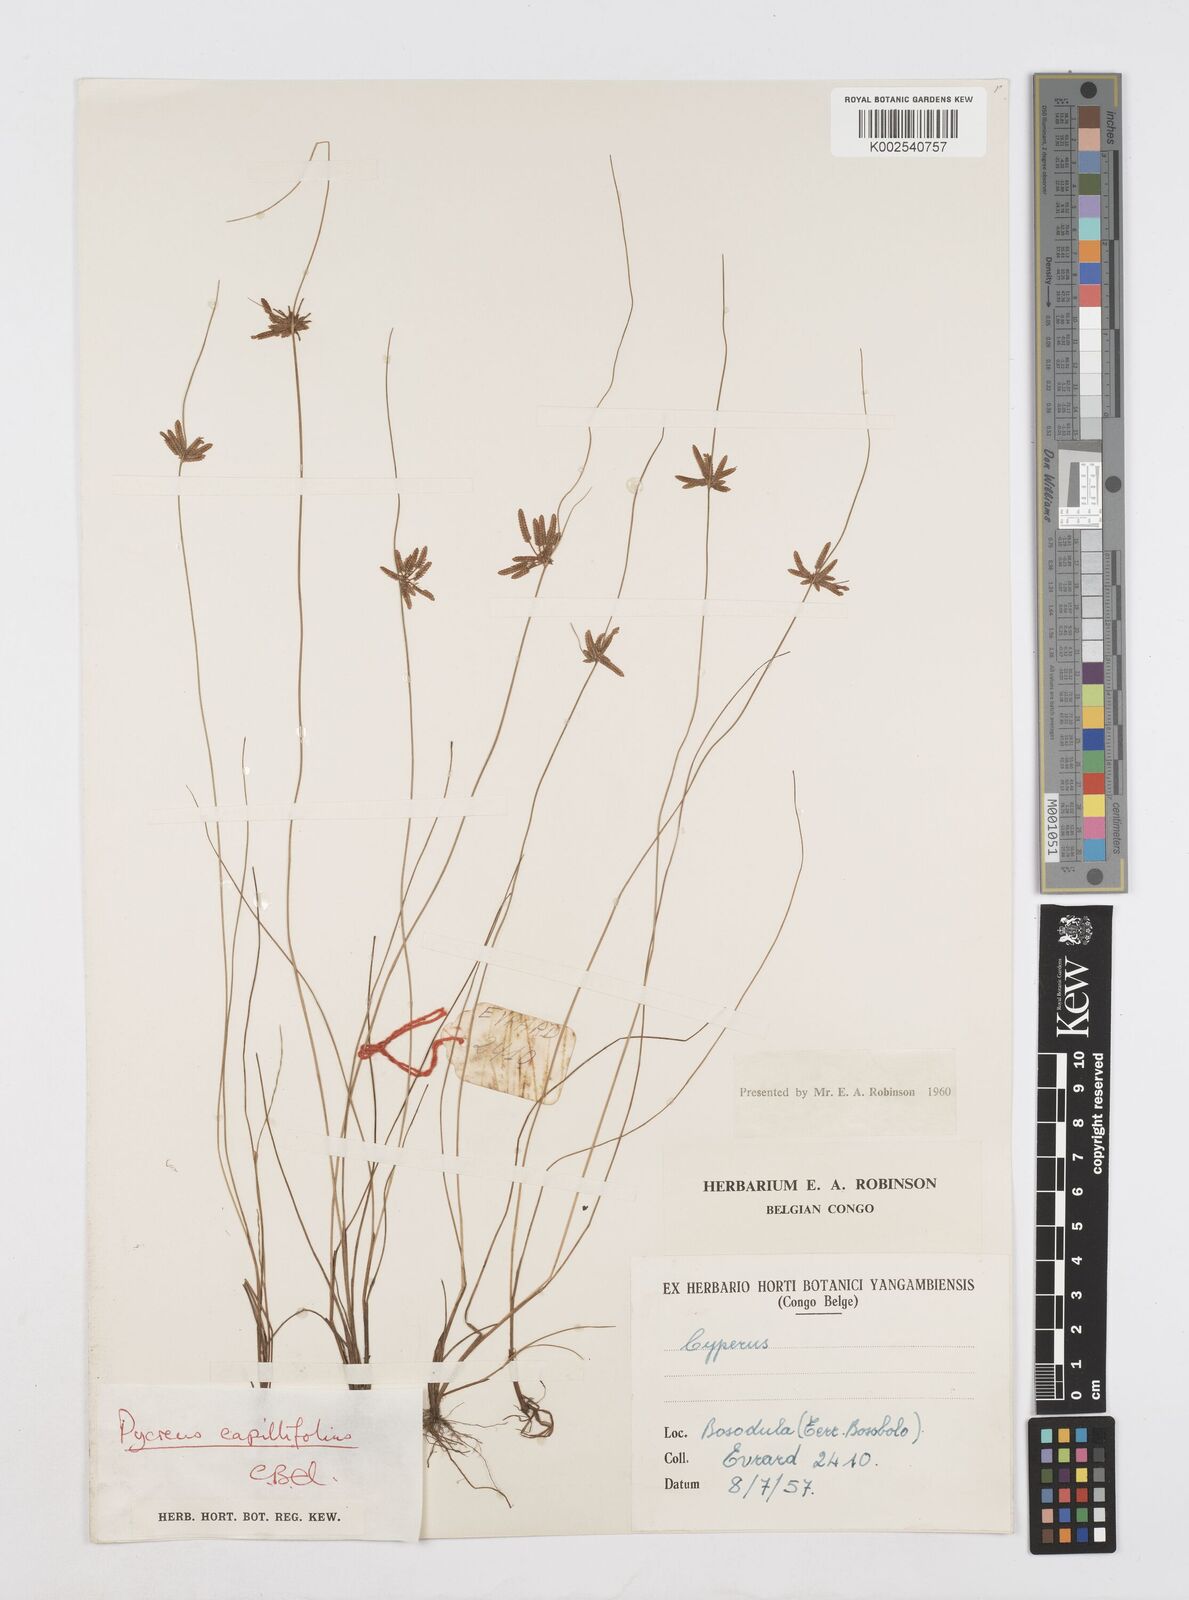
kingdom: Plantae
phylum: Tracheophyta
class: Liliopsida
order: Poales
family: Cyperaceae
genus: Cyperus
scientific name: Cyperus capillifolius
